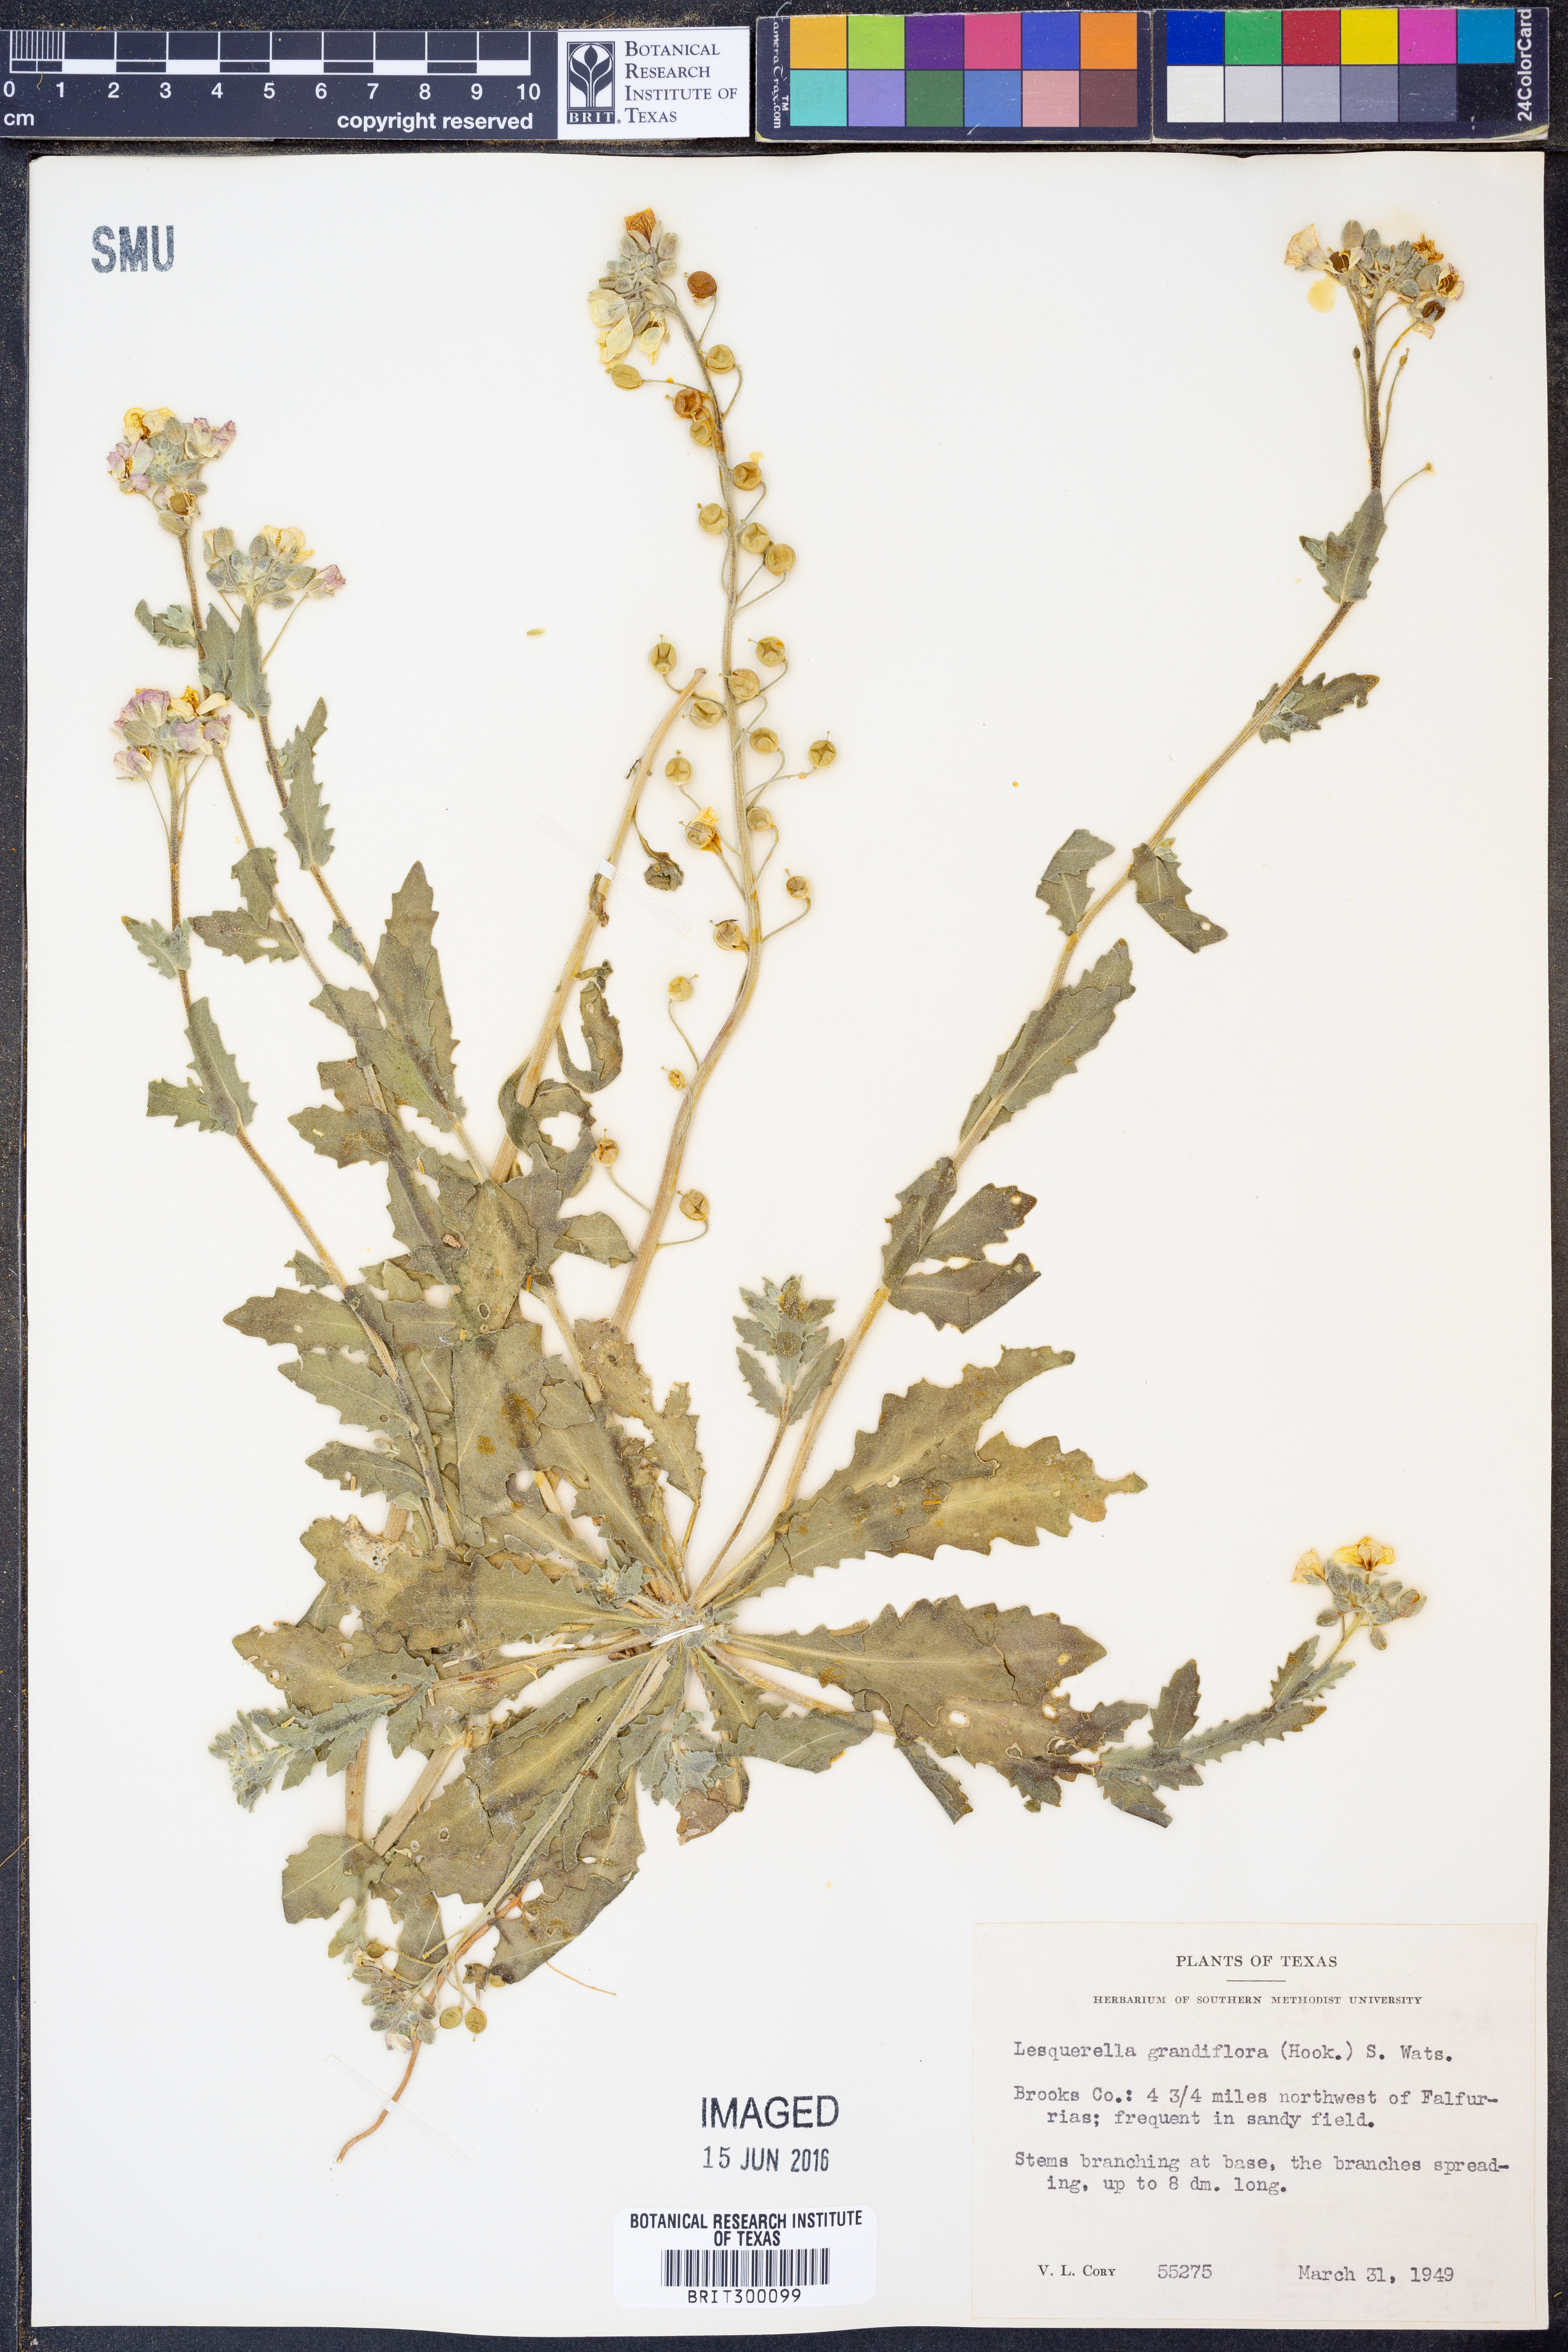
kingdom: Plantae
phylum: Tracheophyta
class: Magnoliopsida
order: Brassicales
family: Brassicaceae
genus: Paysonia
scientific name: Paysonia grandiflora
